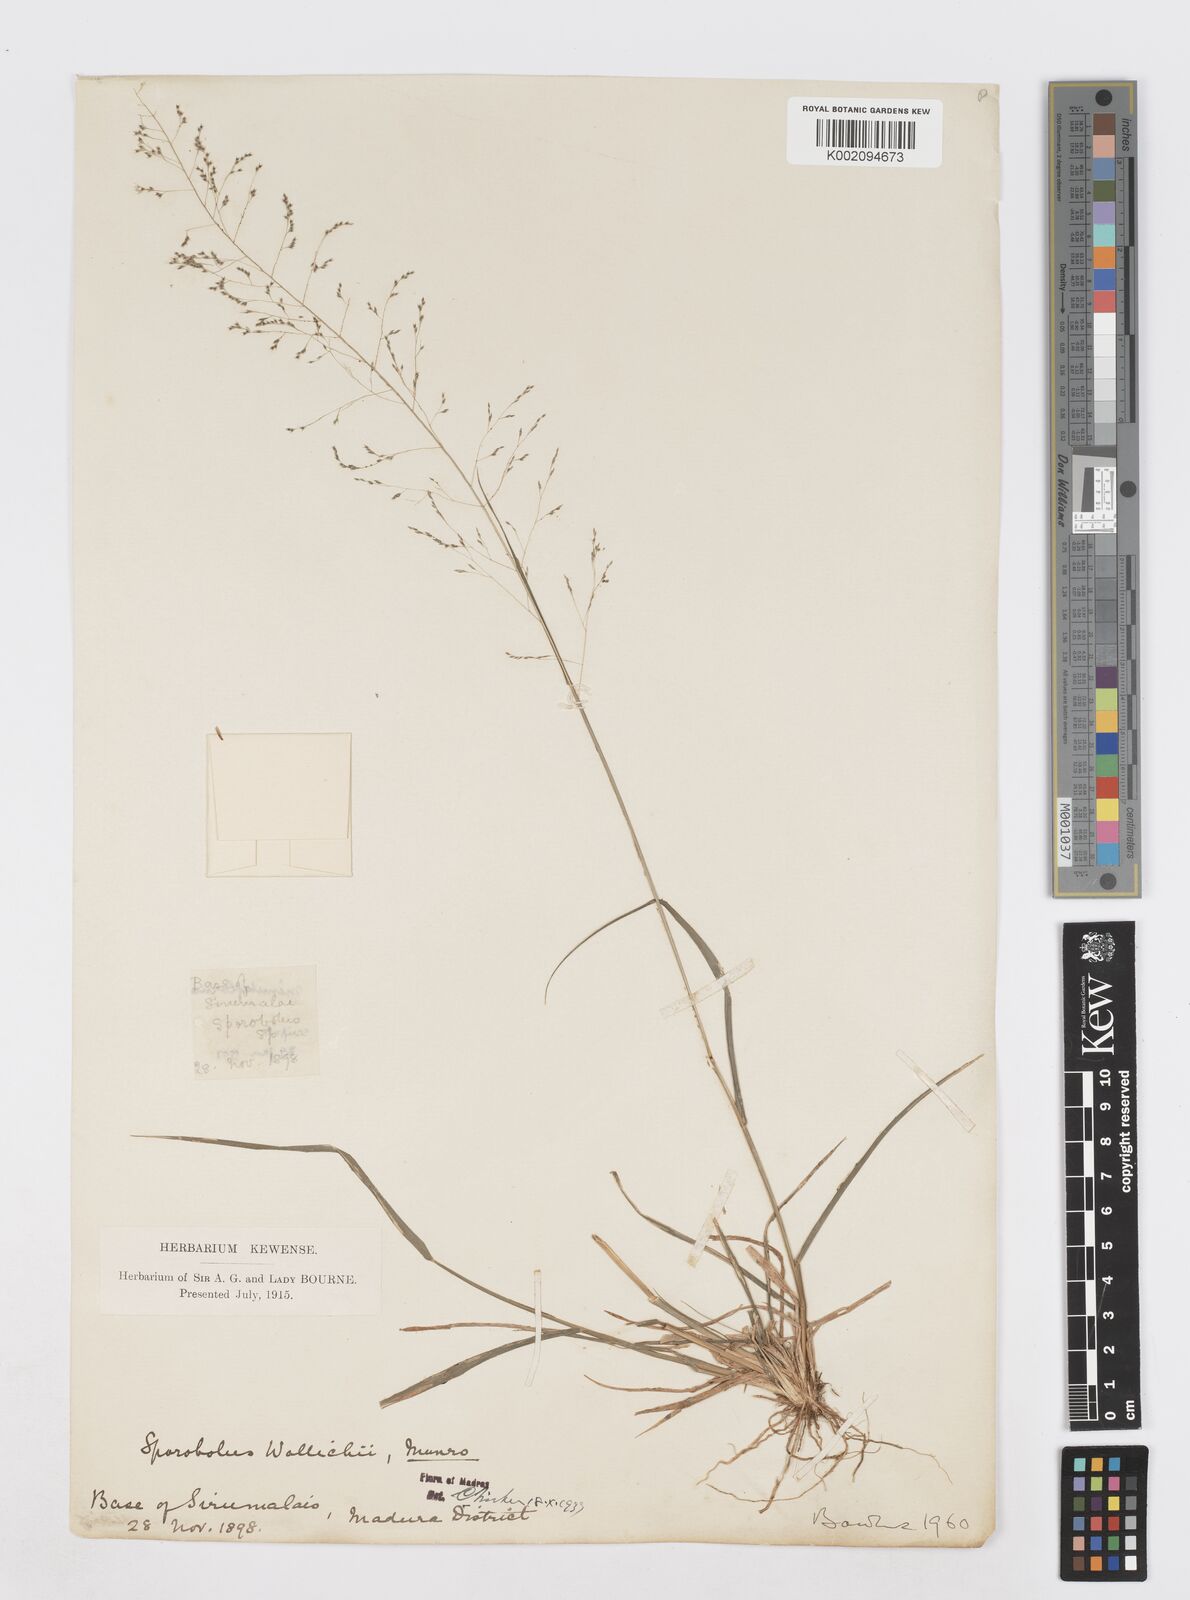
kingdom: Plantae
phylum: Tracheophyta
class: Liliopsida
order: Poales
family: Poaceae
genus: Sporobolus
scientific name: Sporobolus wallichii
